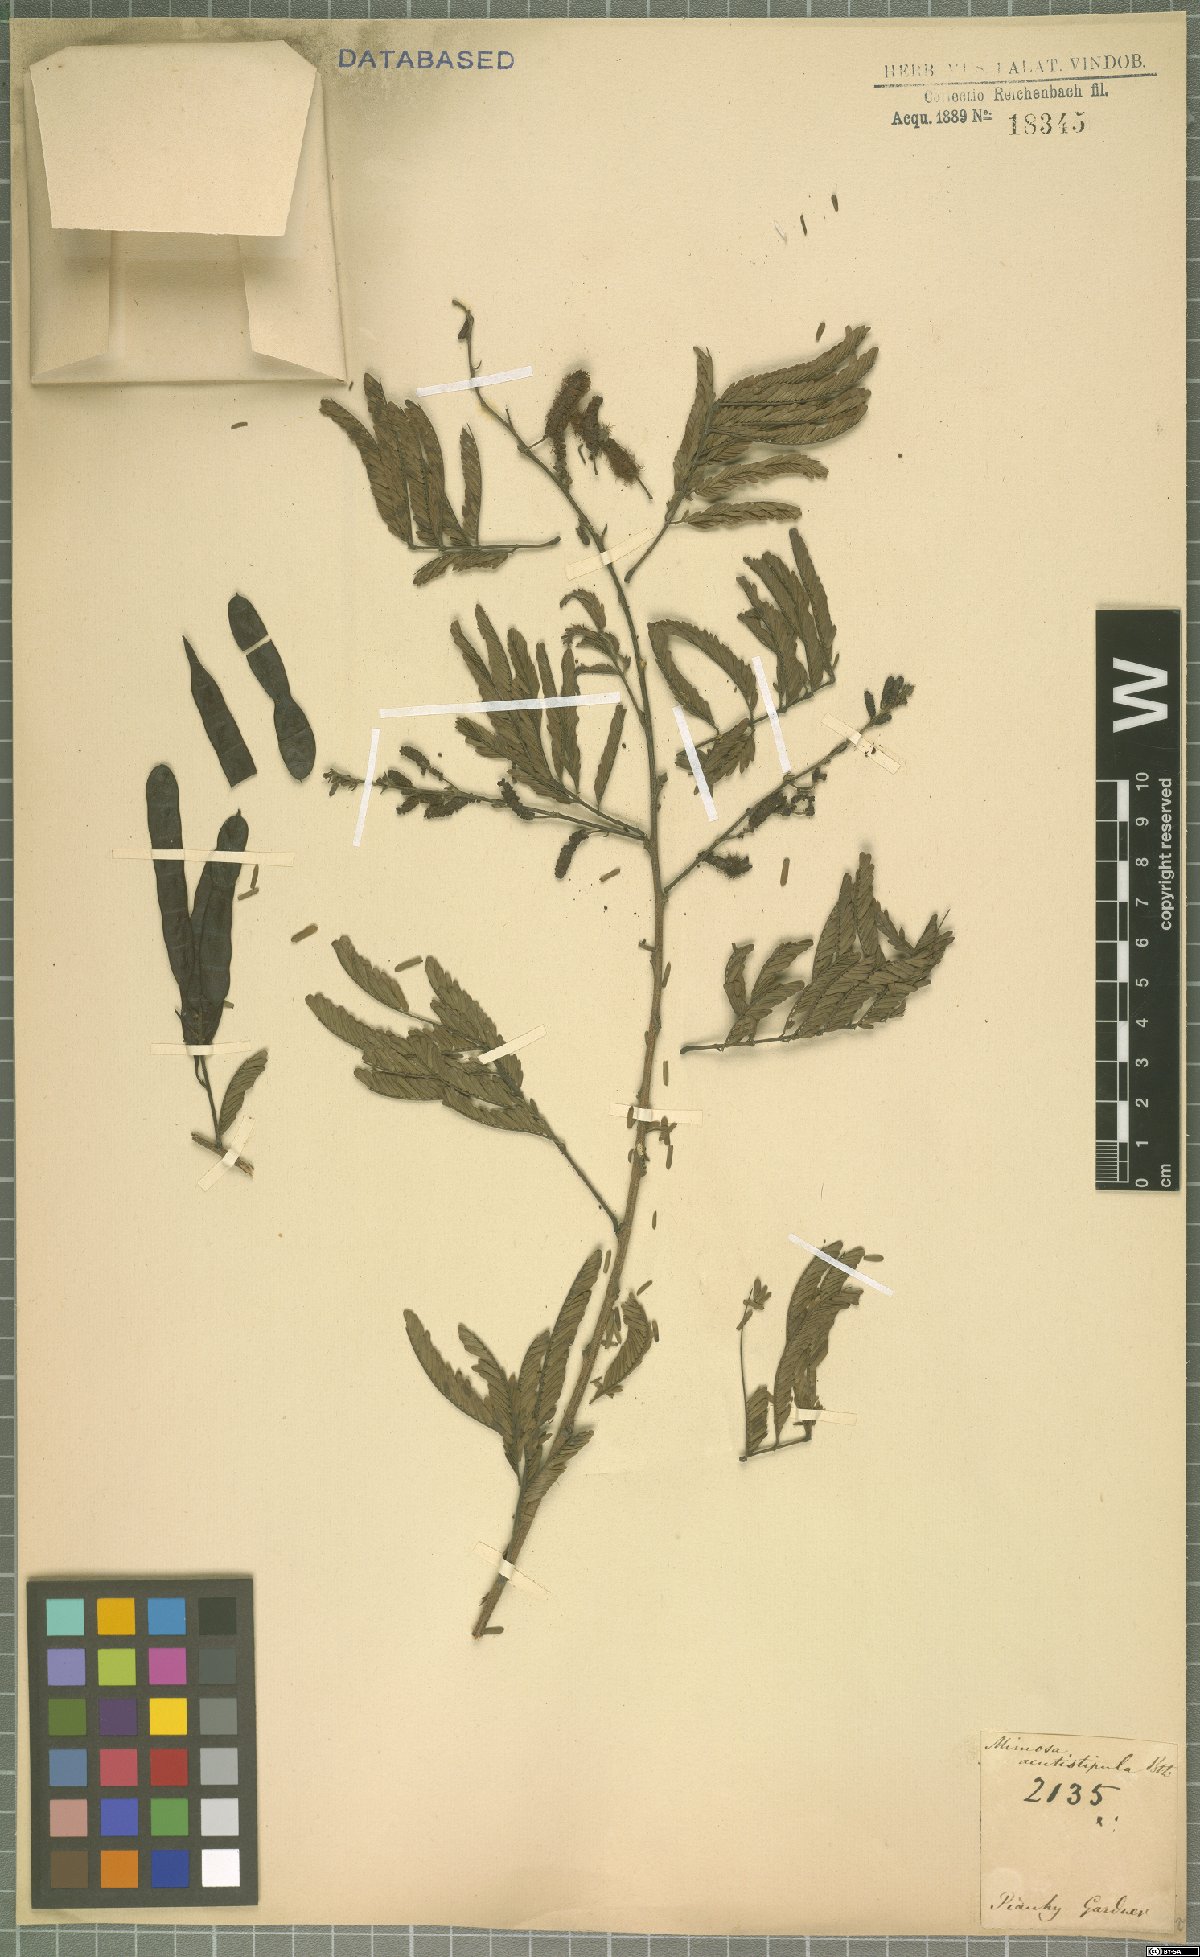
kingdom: Plantae
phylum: Tracheophyta
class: Magnoliopsida
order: Fabales
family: Fabaceae
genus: Mimosa
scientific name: Mimosa acutistipula
